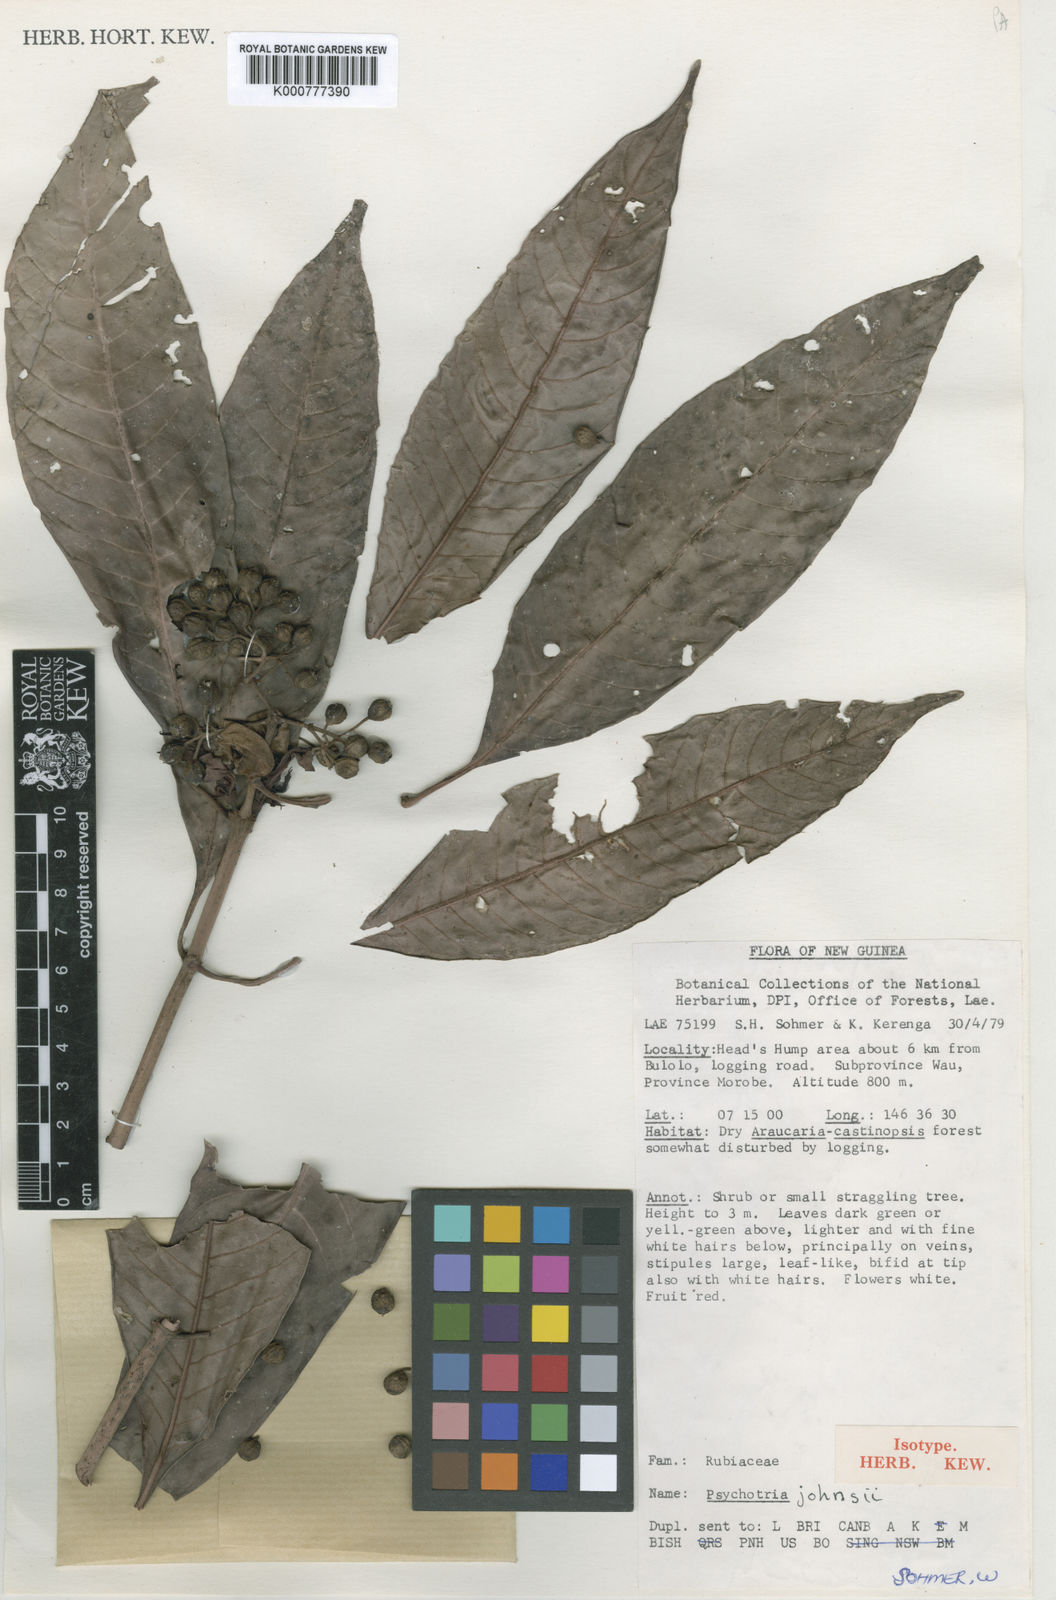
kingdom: Plantae
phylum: Tracheophyta
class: Magnoliopsida
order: Gentianales
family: Rubiaceae
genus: Psychotria
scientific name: Psychotria johnsii
